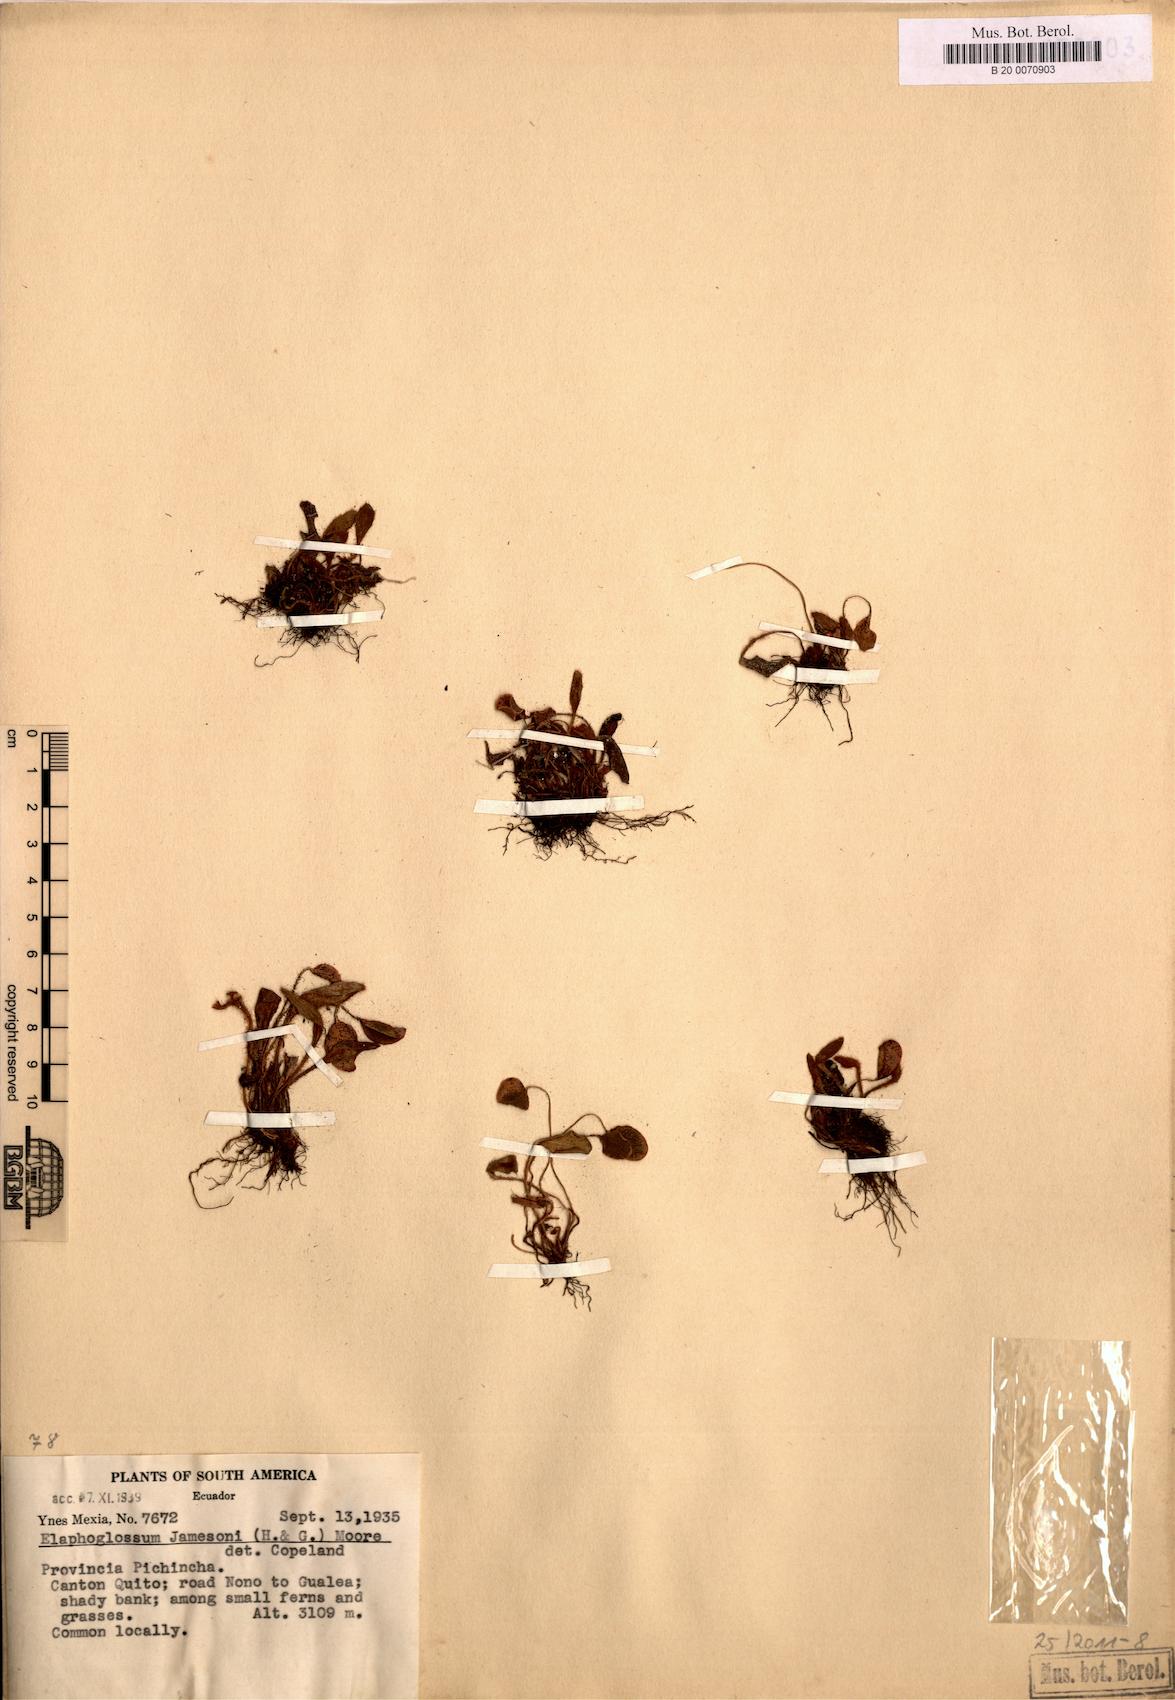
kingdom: Plantae
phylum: Tracheophyta
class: Polypodiopsida
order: Polypodiales
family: Dryopteridaceae
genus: Elaphoglossum
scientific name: Elaphoglossum piloselloides
